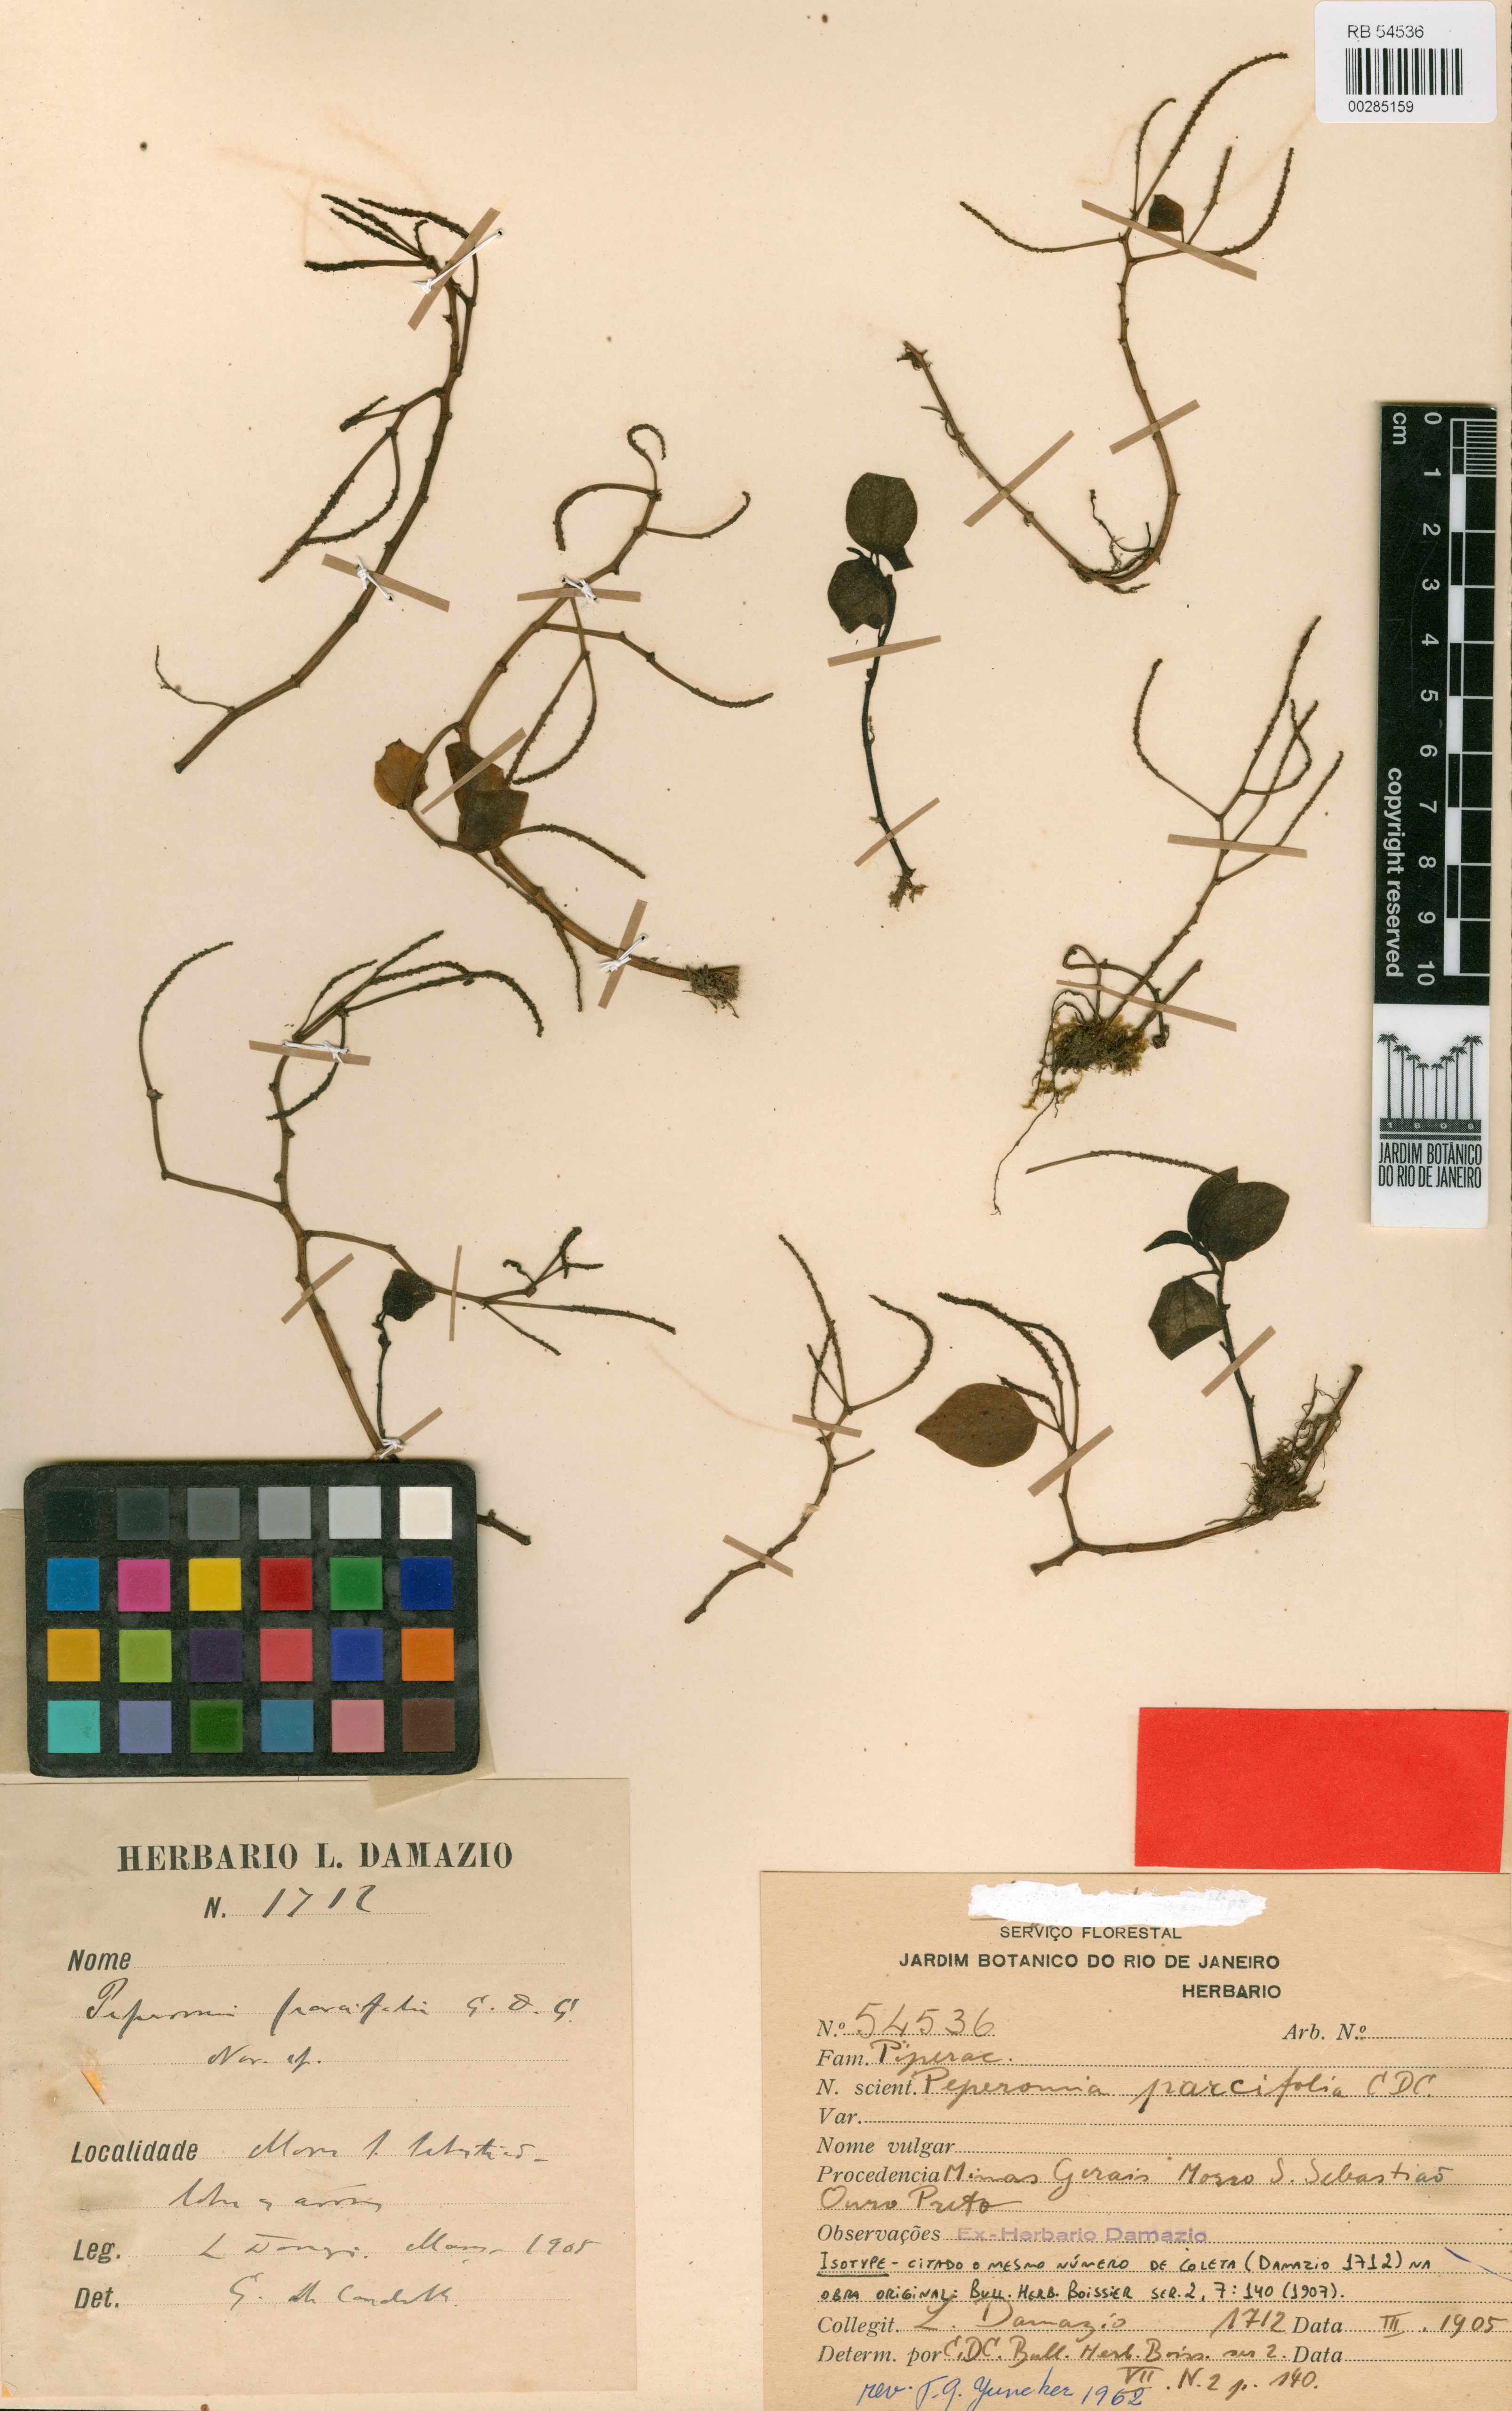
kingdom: Plantae
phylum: Tracheophyta
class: Magnoliopsida
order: Piperales
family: Piperaceae
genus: Peperomia
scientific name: Peperomia parcifolia
